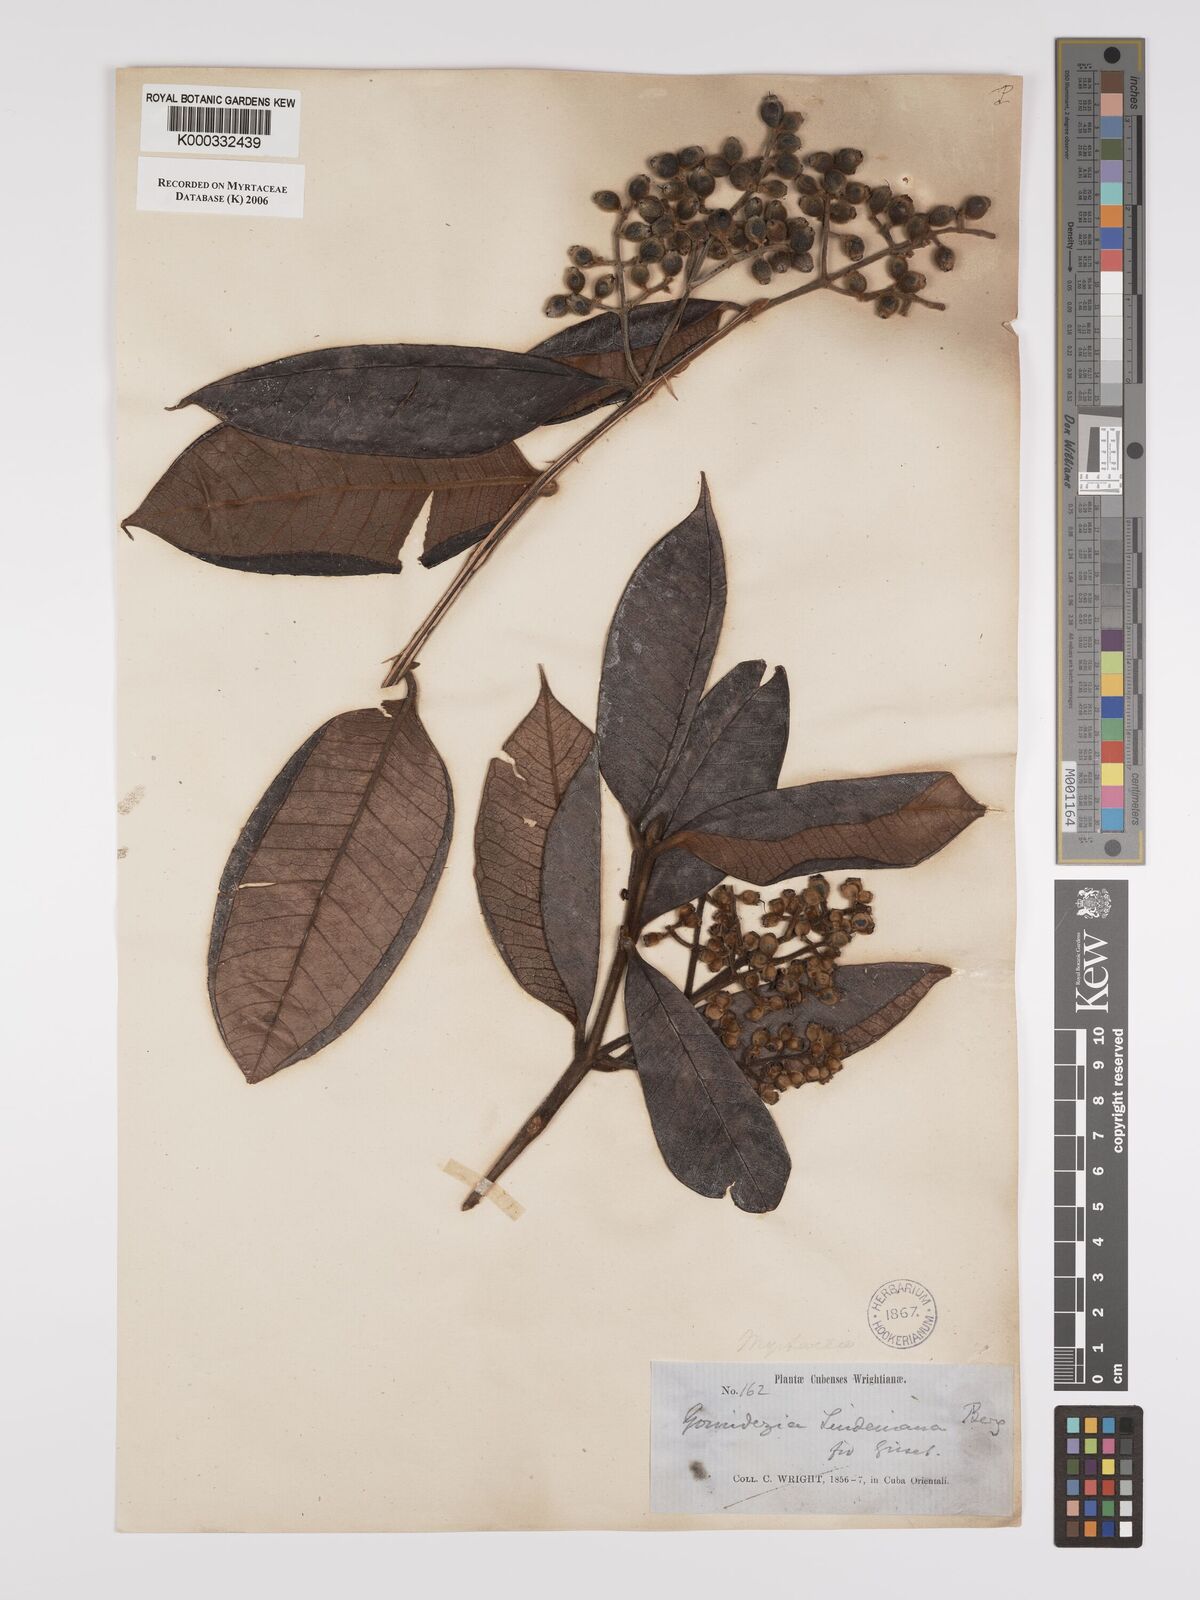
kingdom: Plantae
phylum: Tracheophyta
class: Magnoliopsida
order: Myrtales
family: Myrtaceae
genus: Myrcia
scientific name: Myrcia fenzliana
